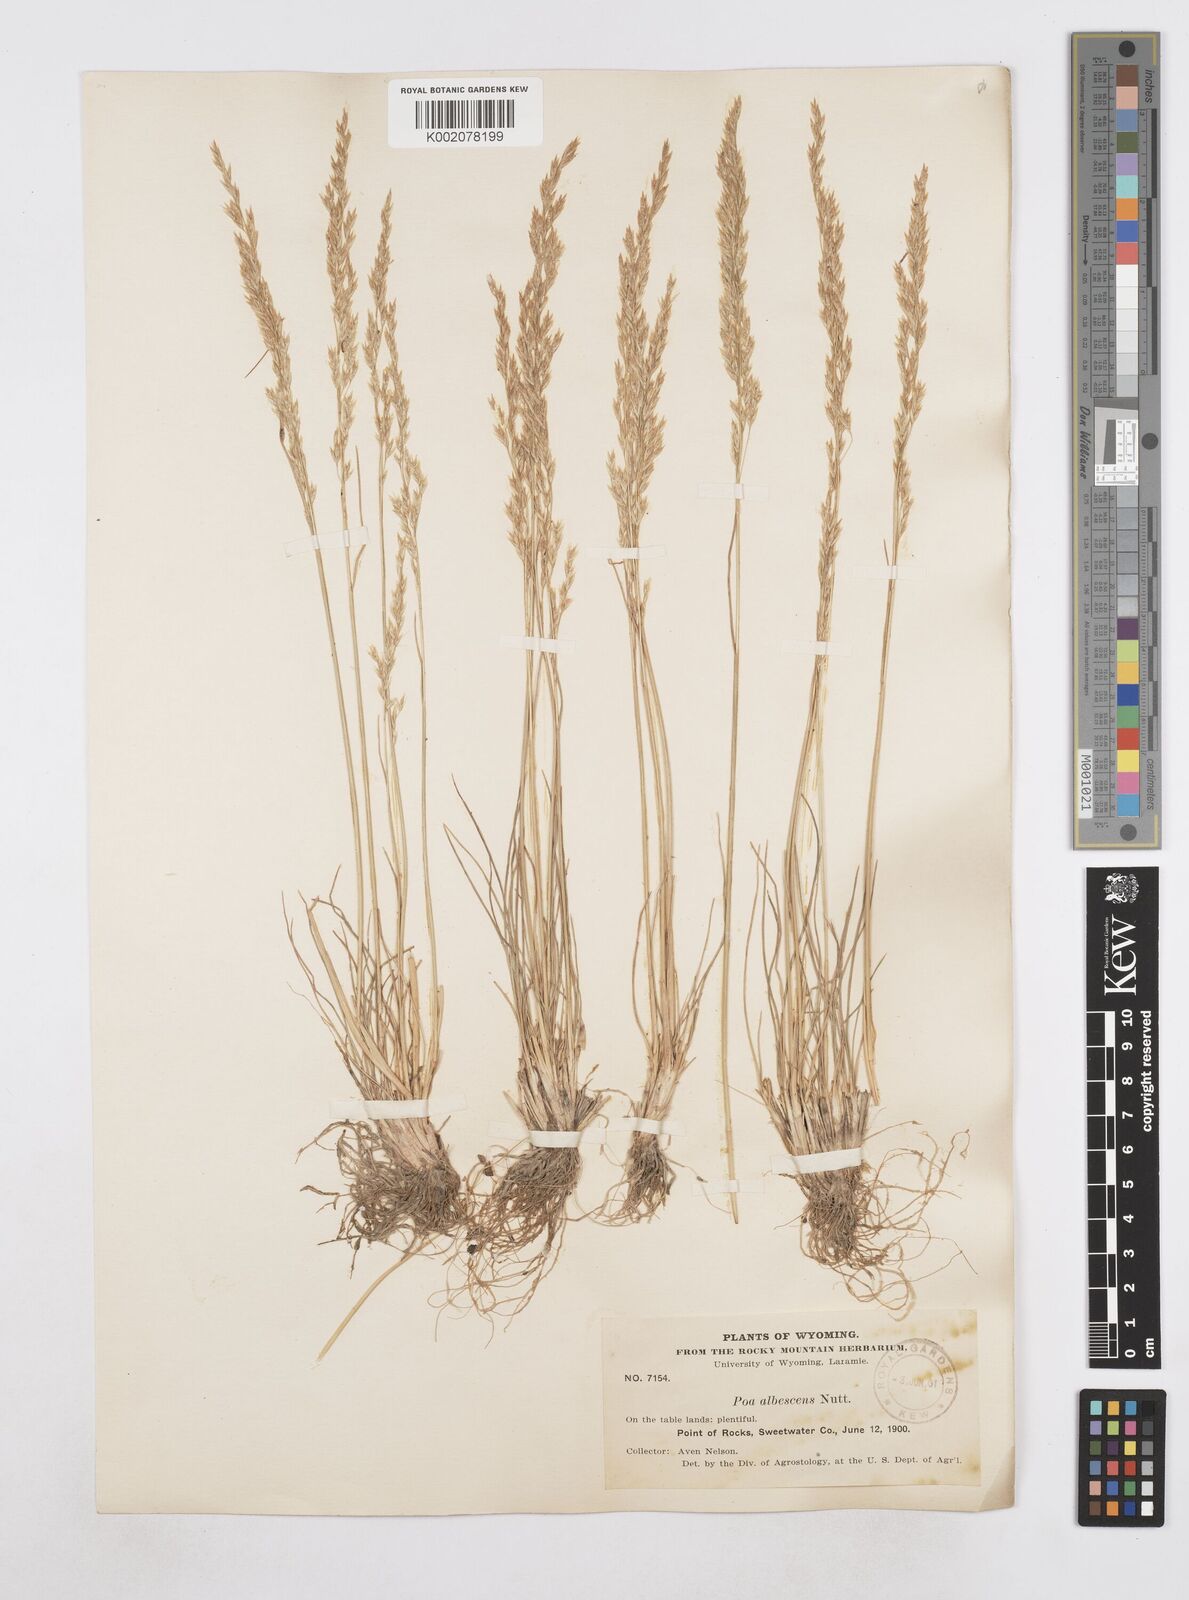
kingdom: Plantae
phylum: Tracheophyta
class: Liliopsida
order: Poales
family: Poaceae
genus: Poa
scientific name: Poa albescens
